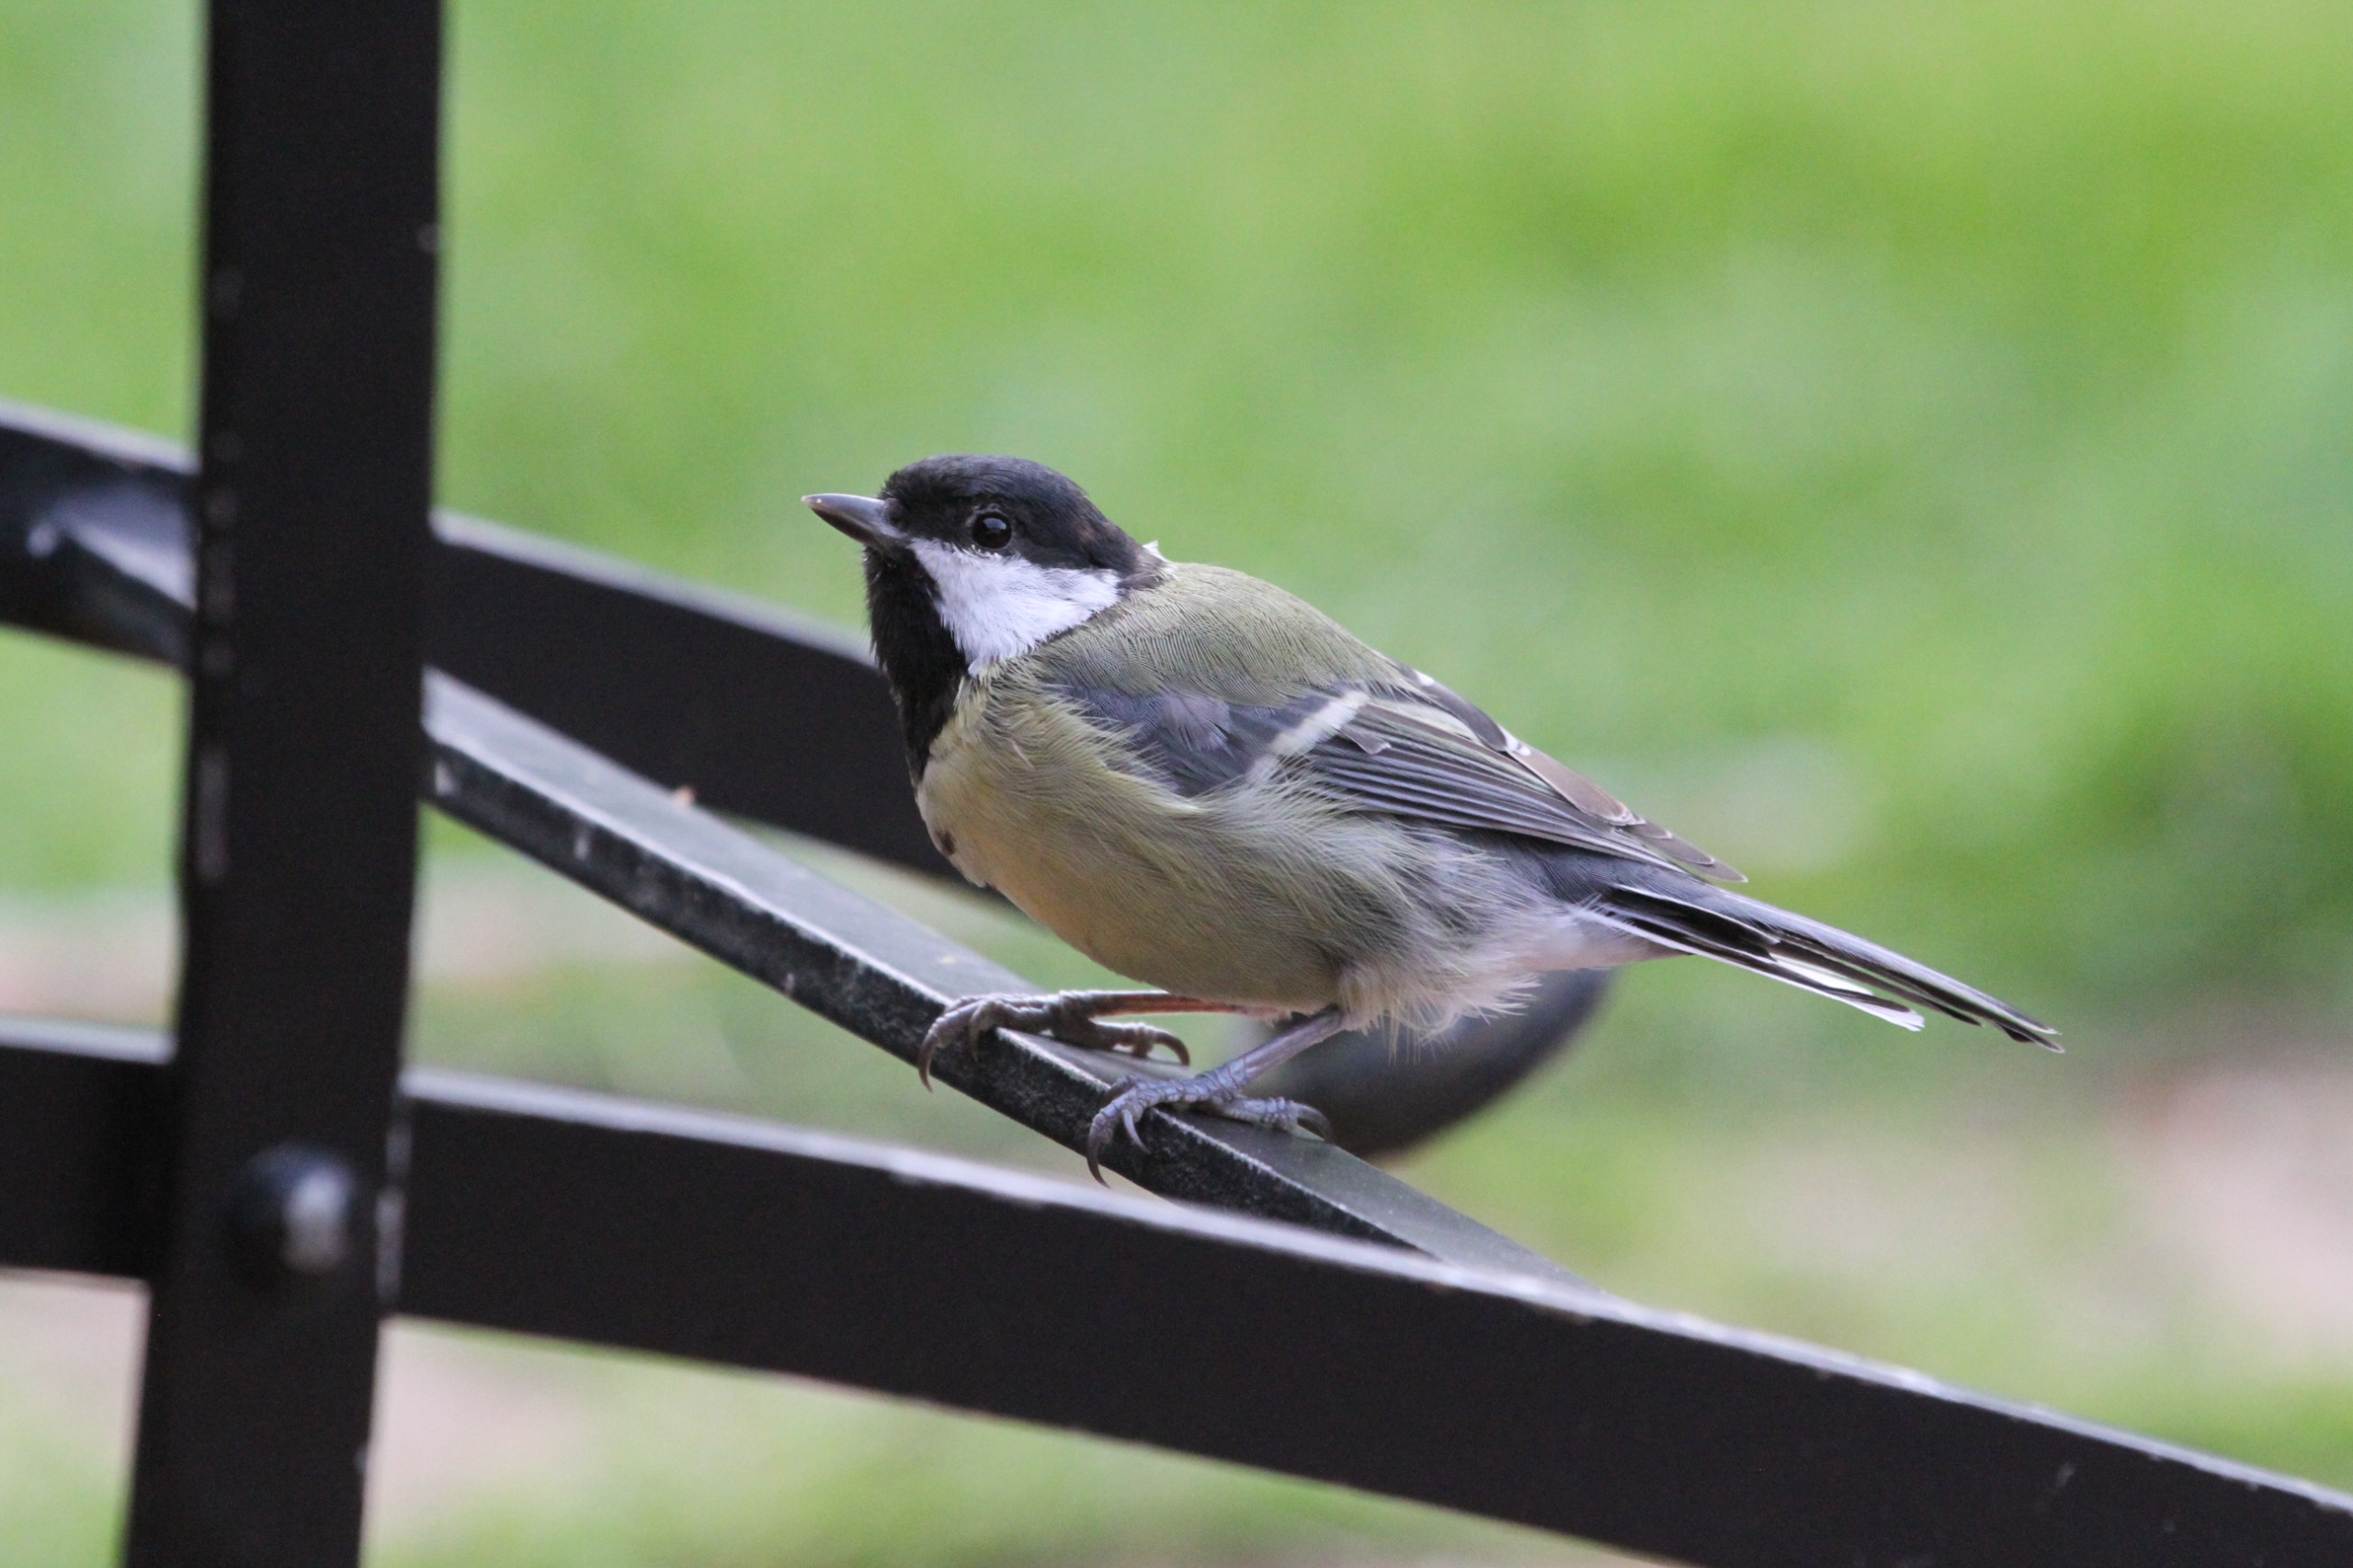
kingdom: Animalia
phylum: Chordata
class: Aves
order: Passeriformes
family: Paridae
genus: Parus
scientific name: Parus major
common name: Musvit
